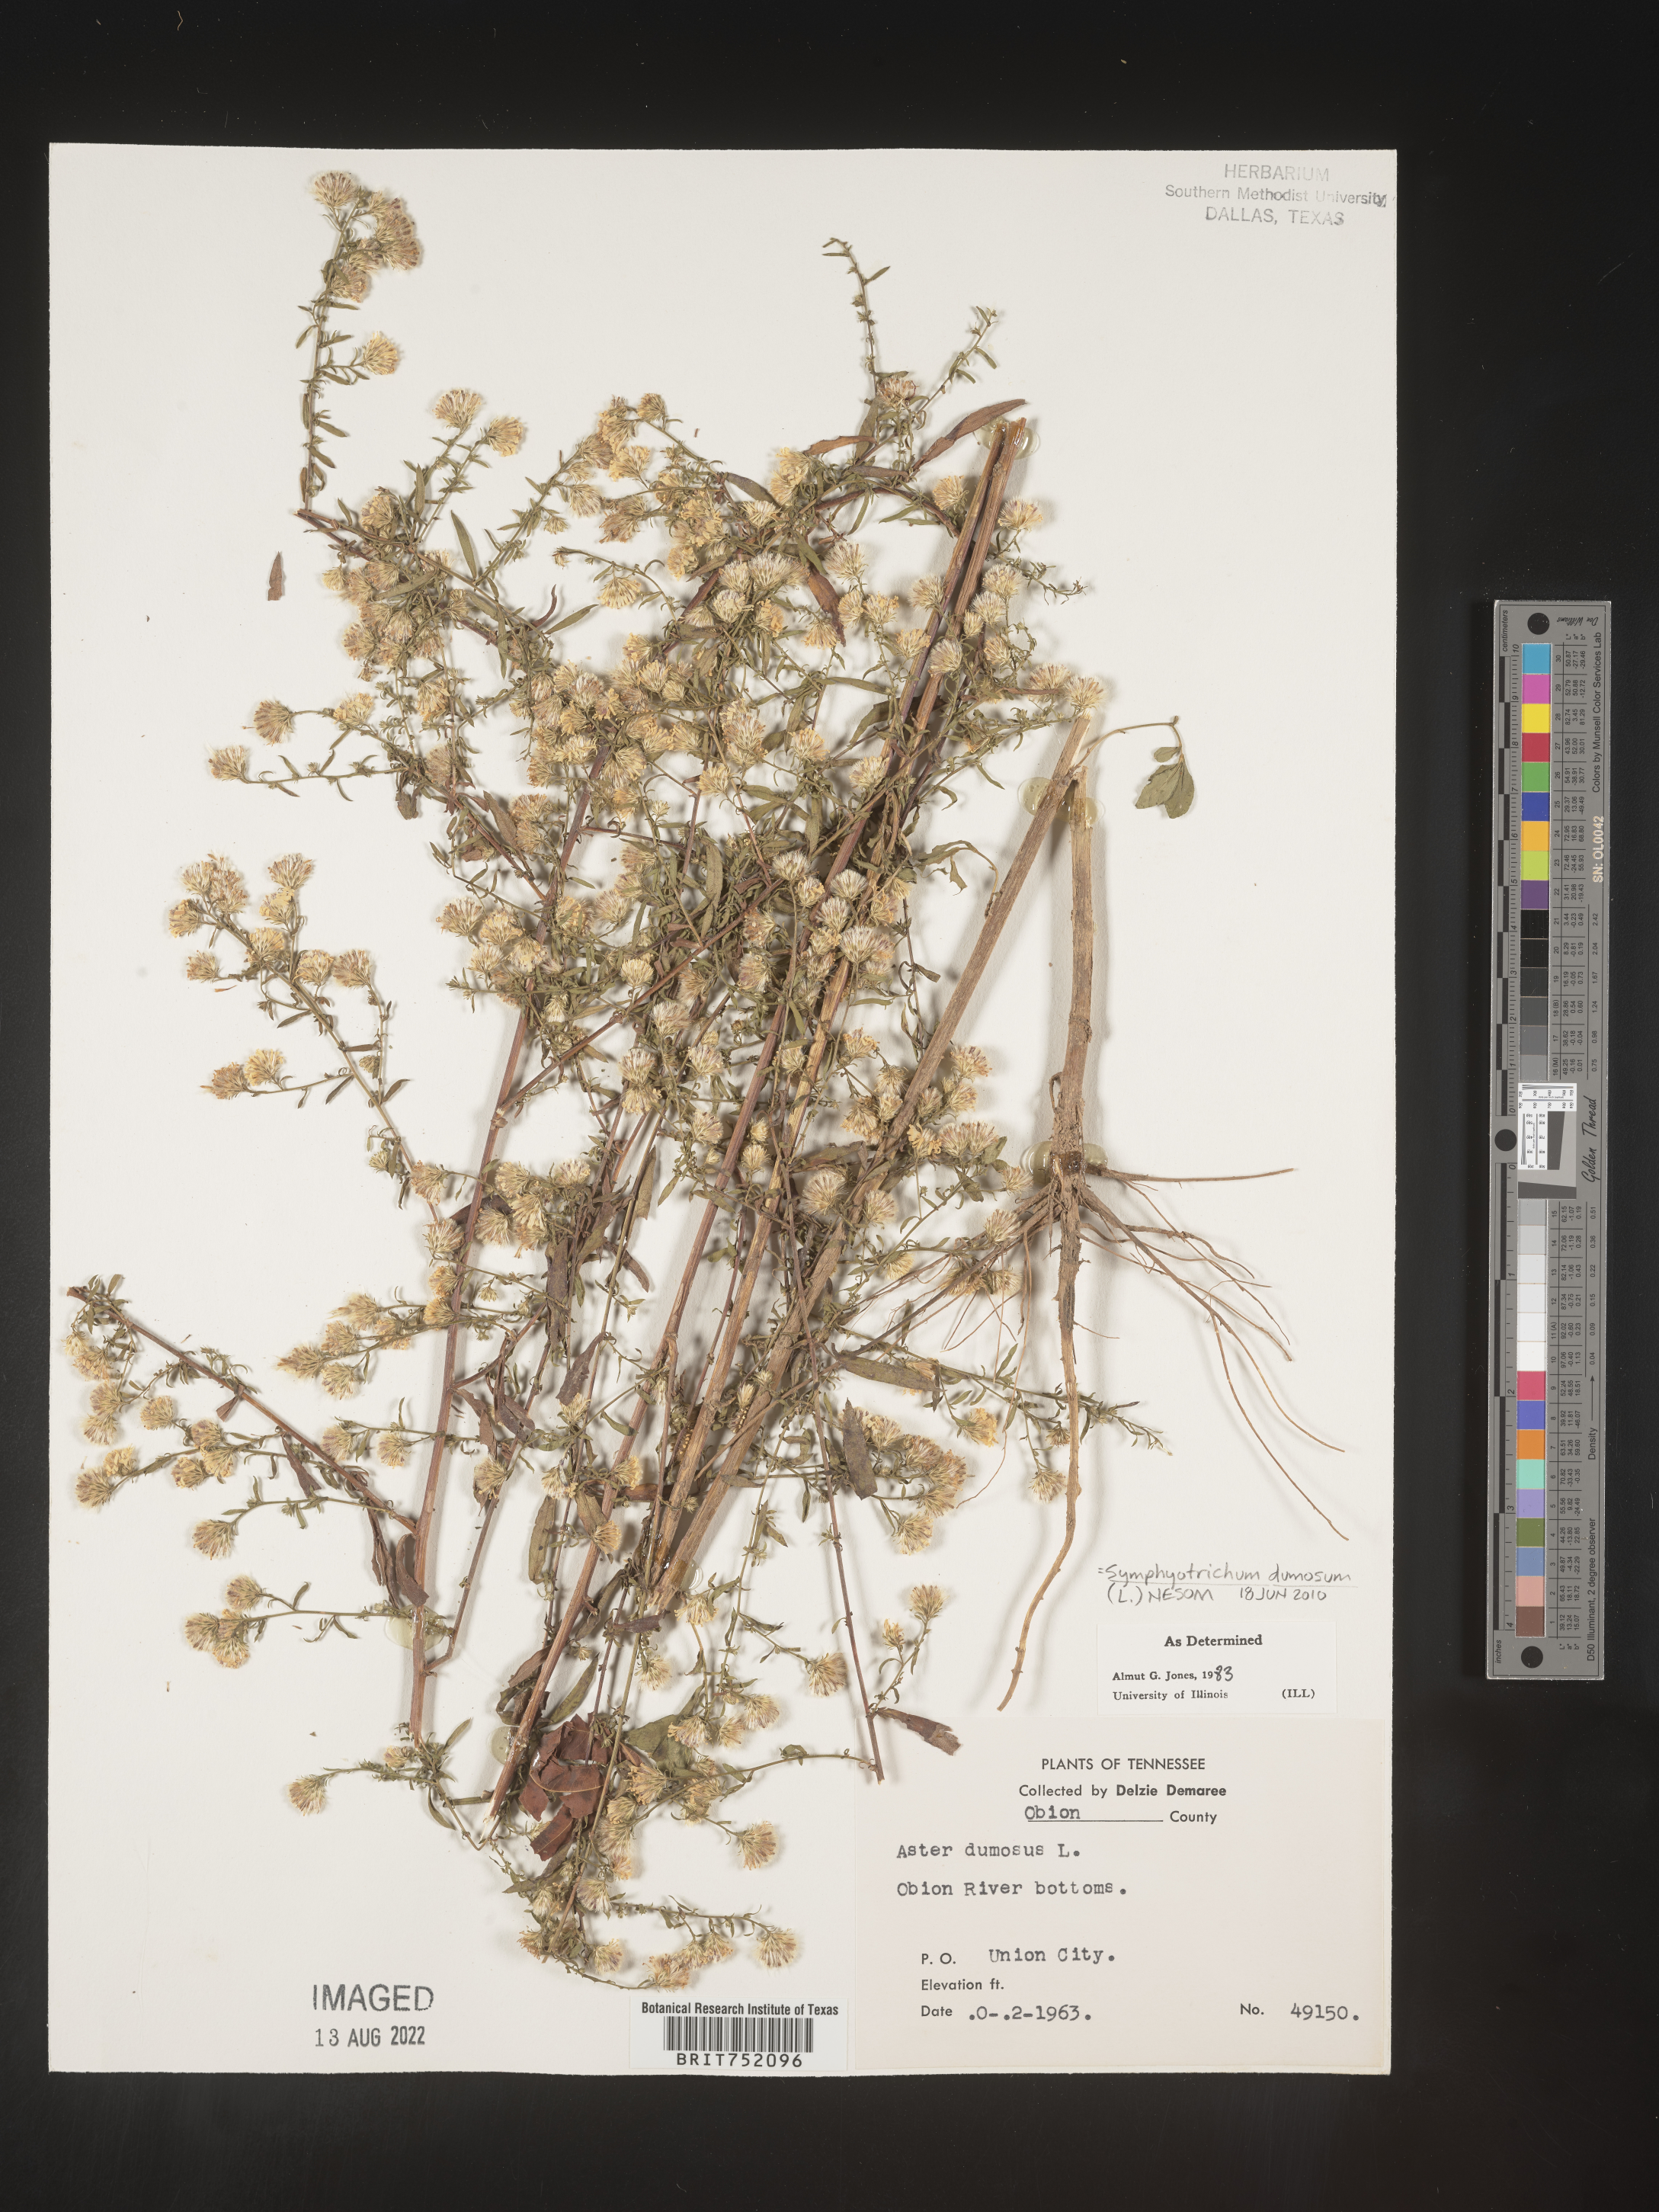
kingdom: Plantae
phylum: Tracheophyta
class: Magnoliopsida
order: Asterales
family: Asteraceae
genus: Symphyotrichum
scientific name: Symphyotrichum dumosum
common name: Bushy aster
